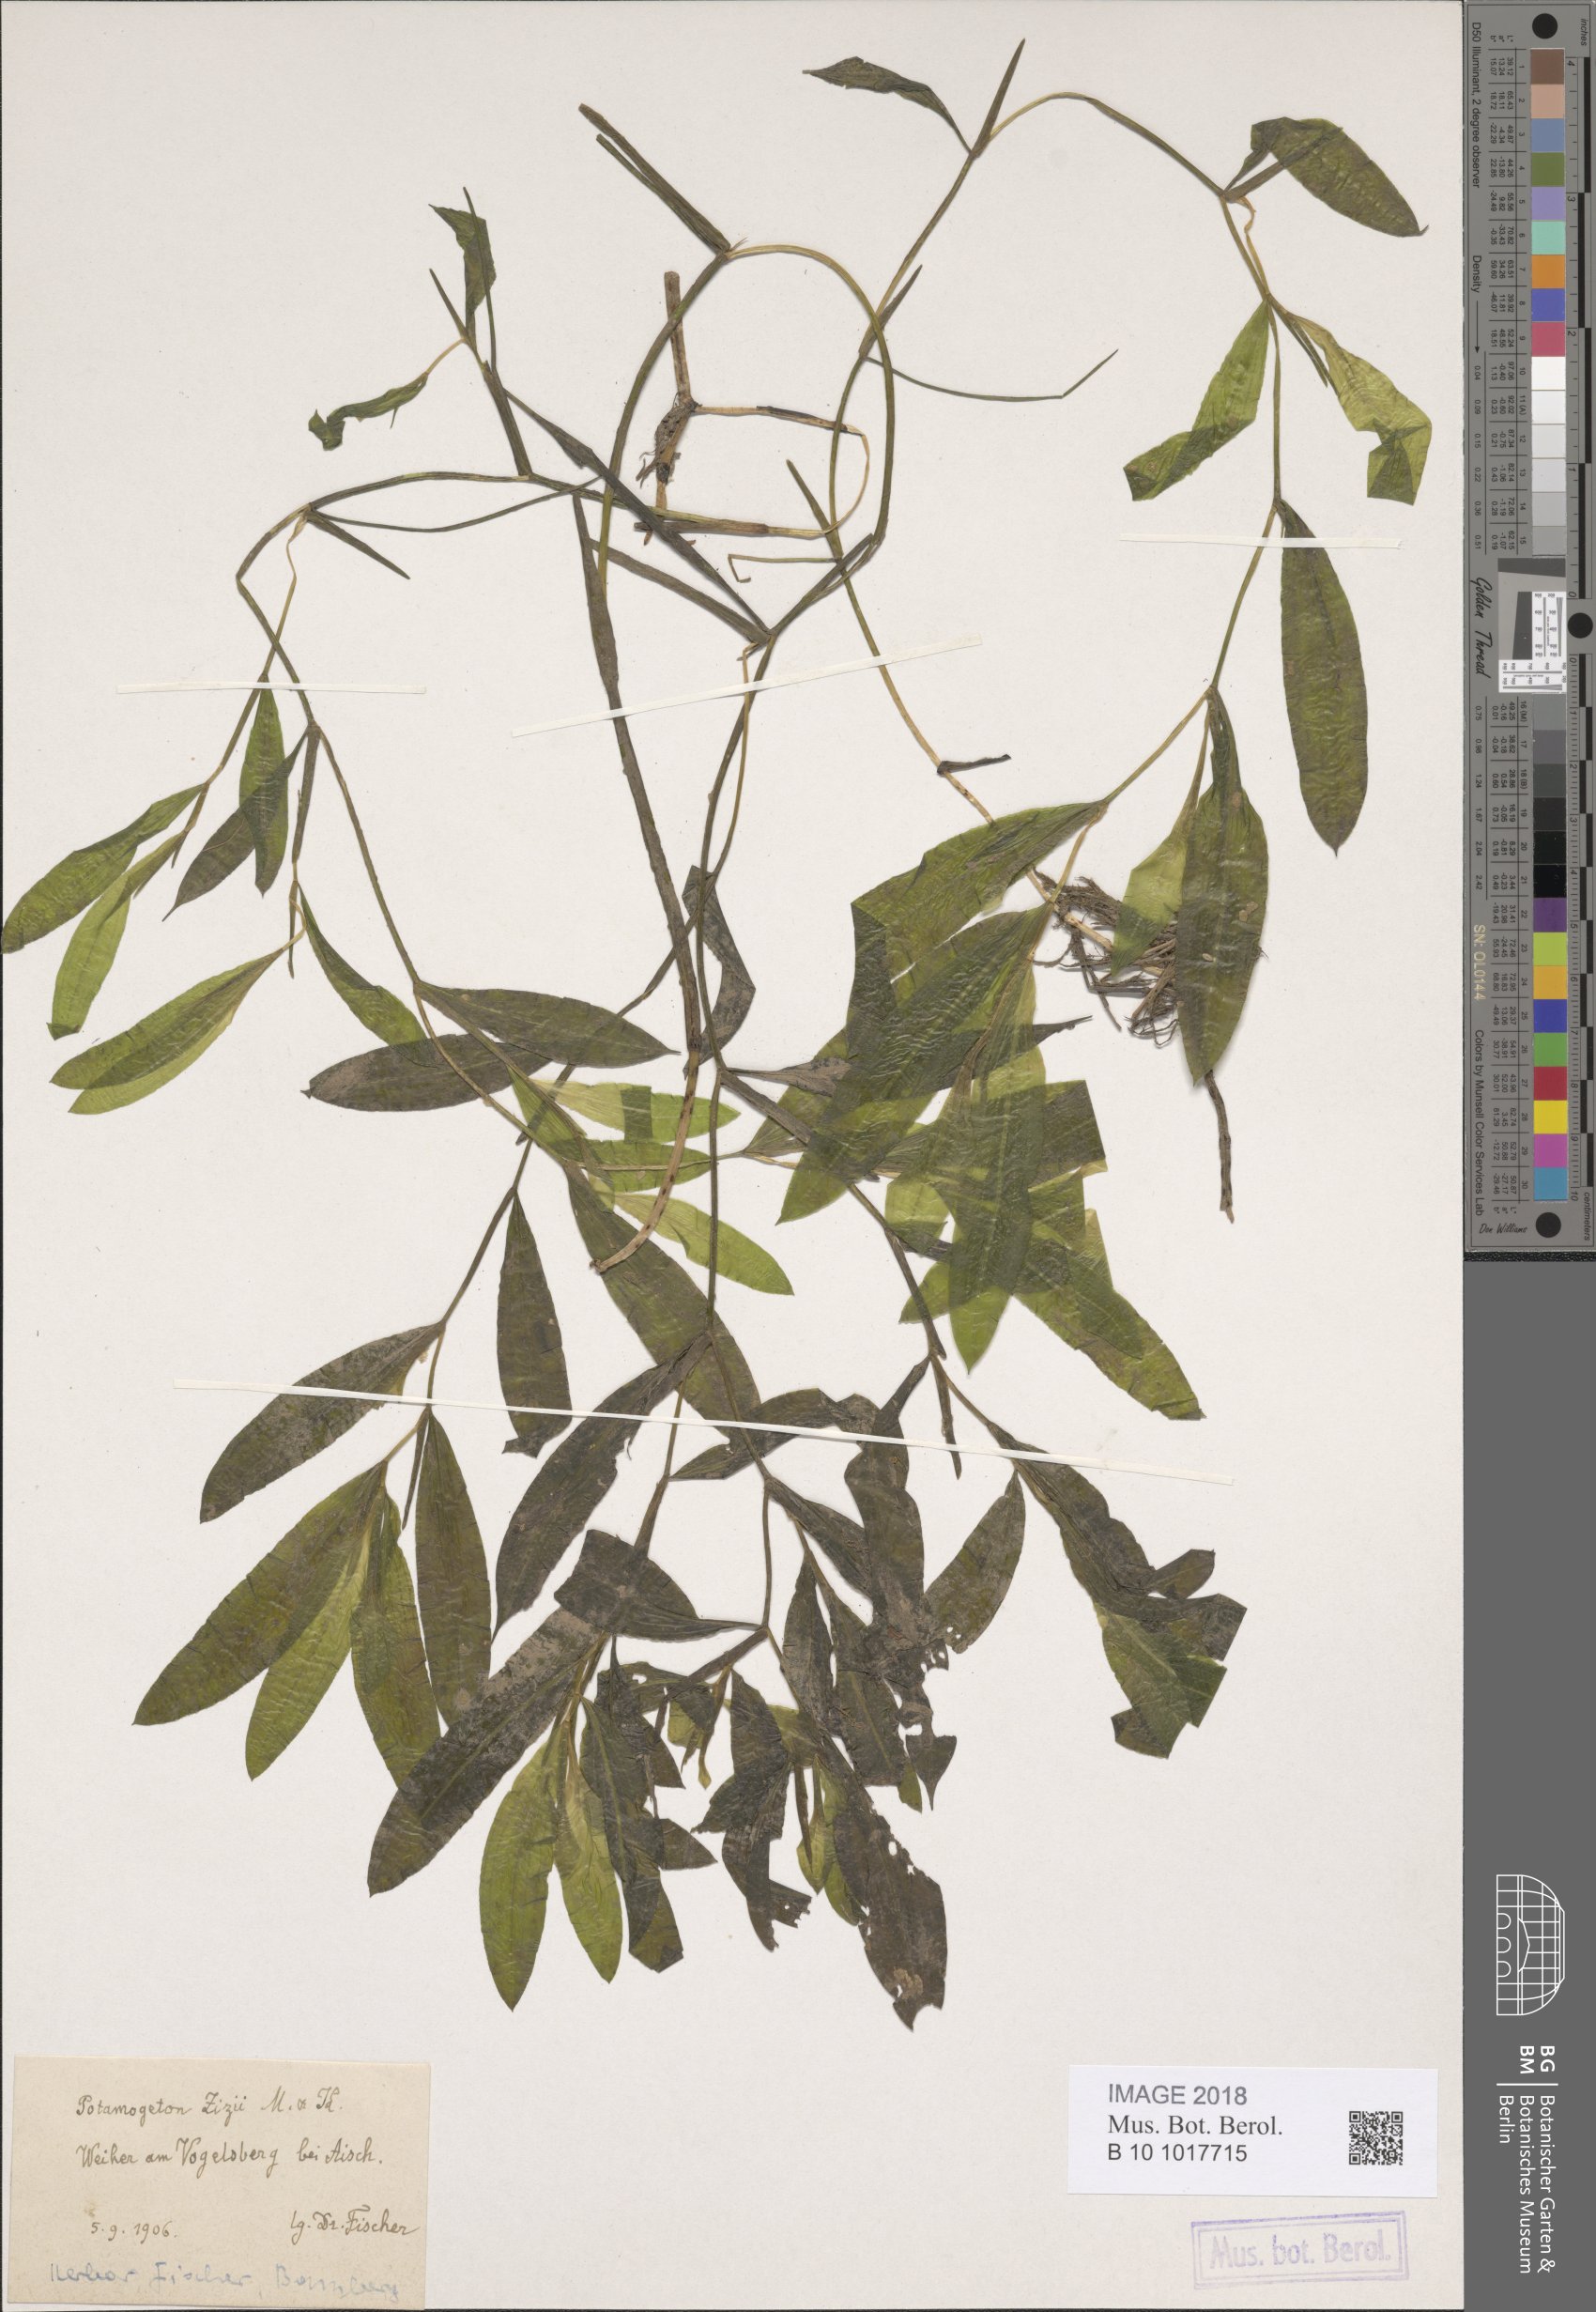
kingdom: Plantae
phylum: Tracheophyta
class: Liliopsida
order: Alismatales
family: Potamogetonaceae
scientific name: Potamogetonaceae
